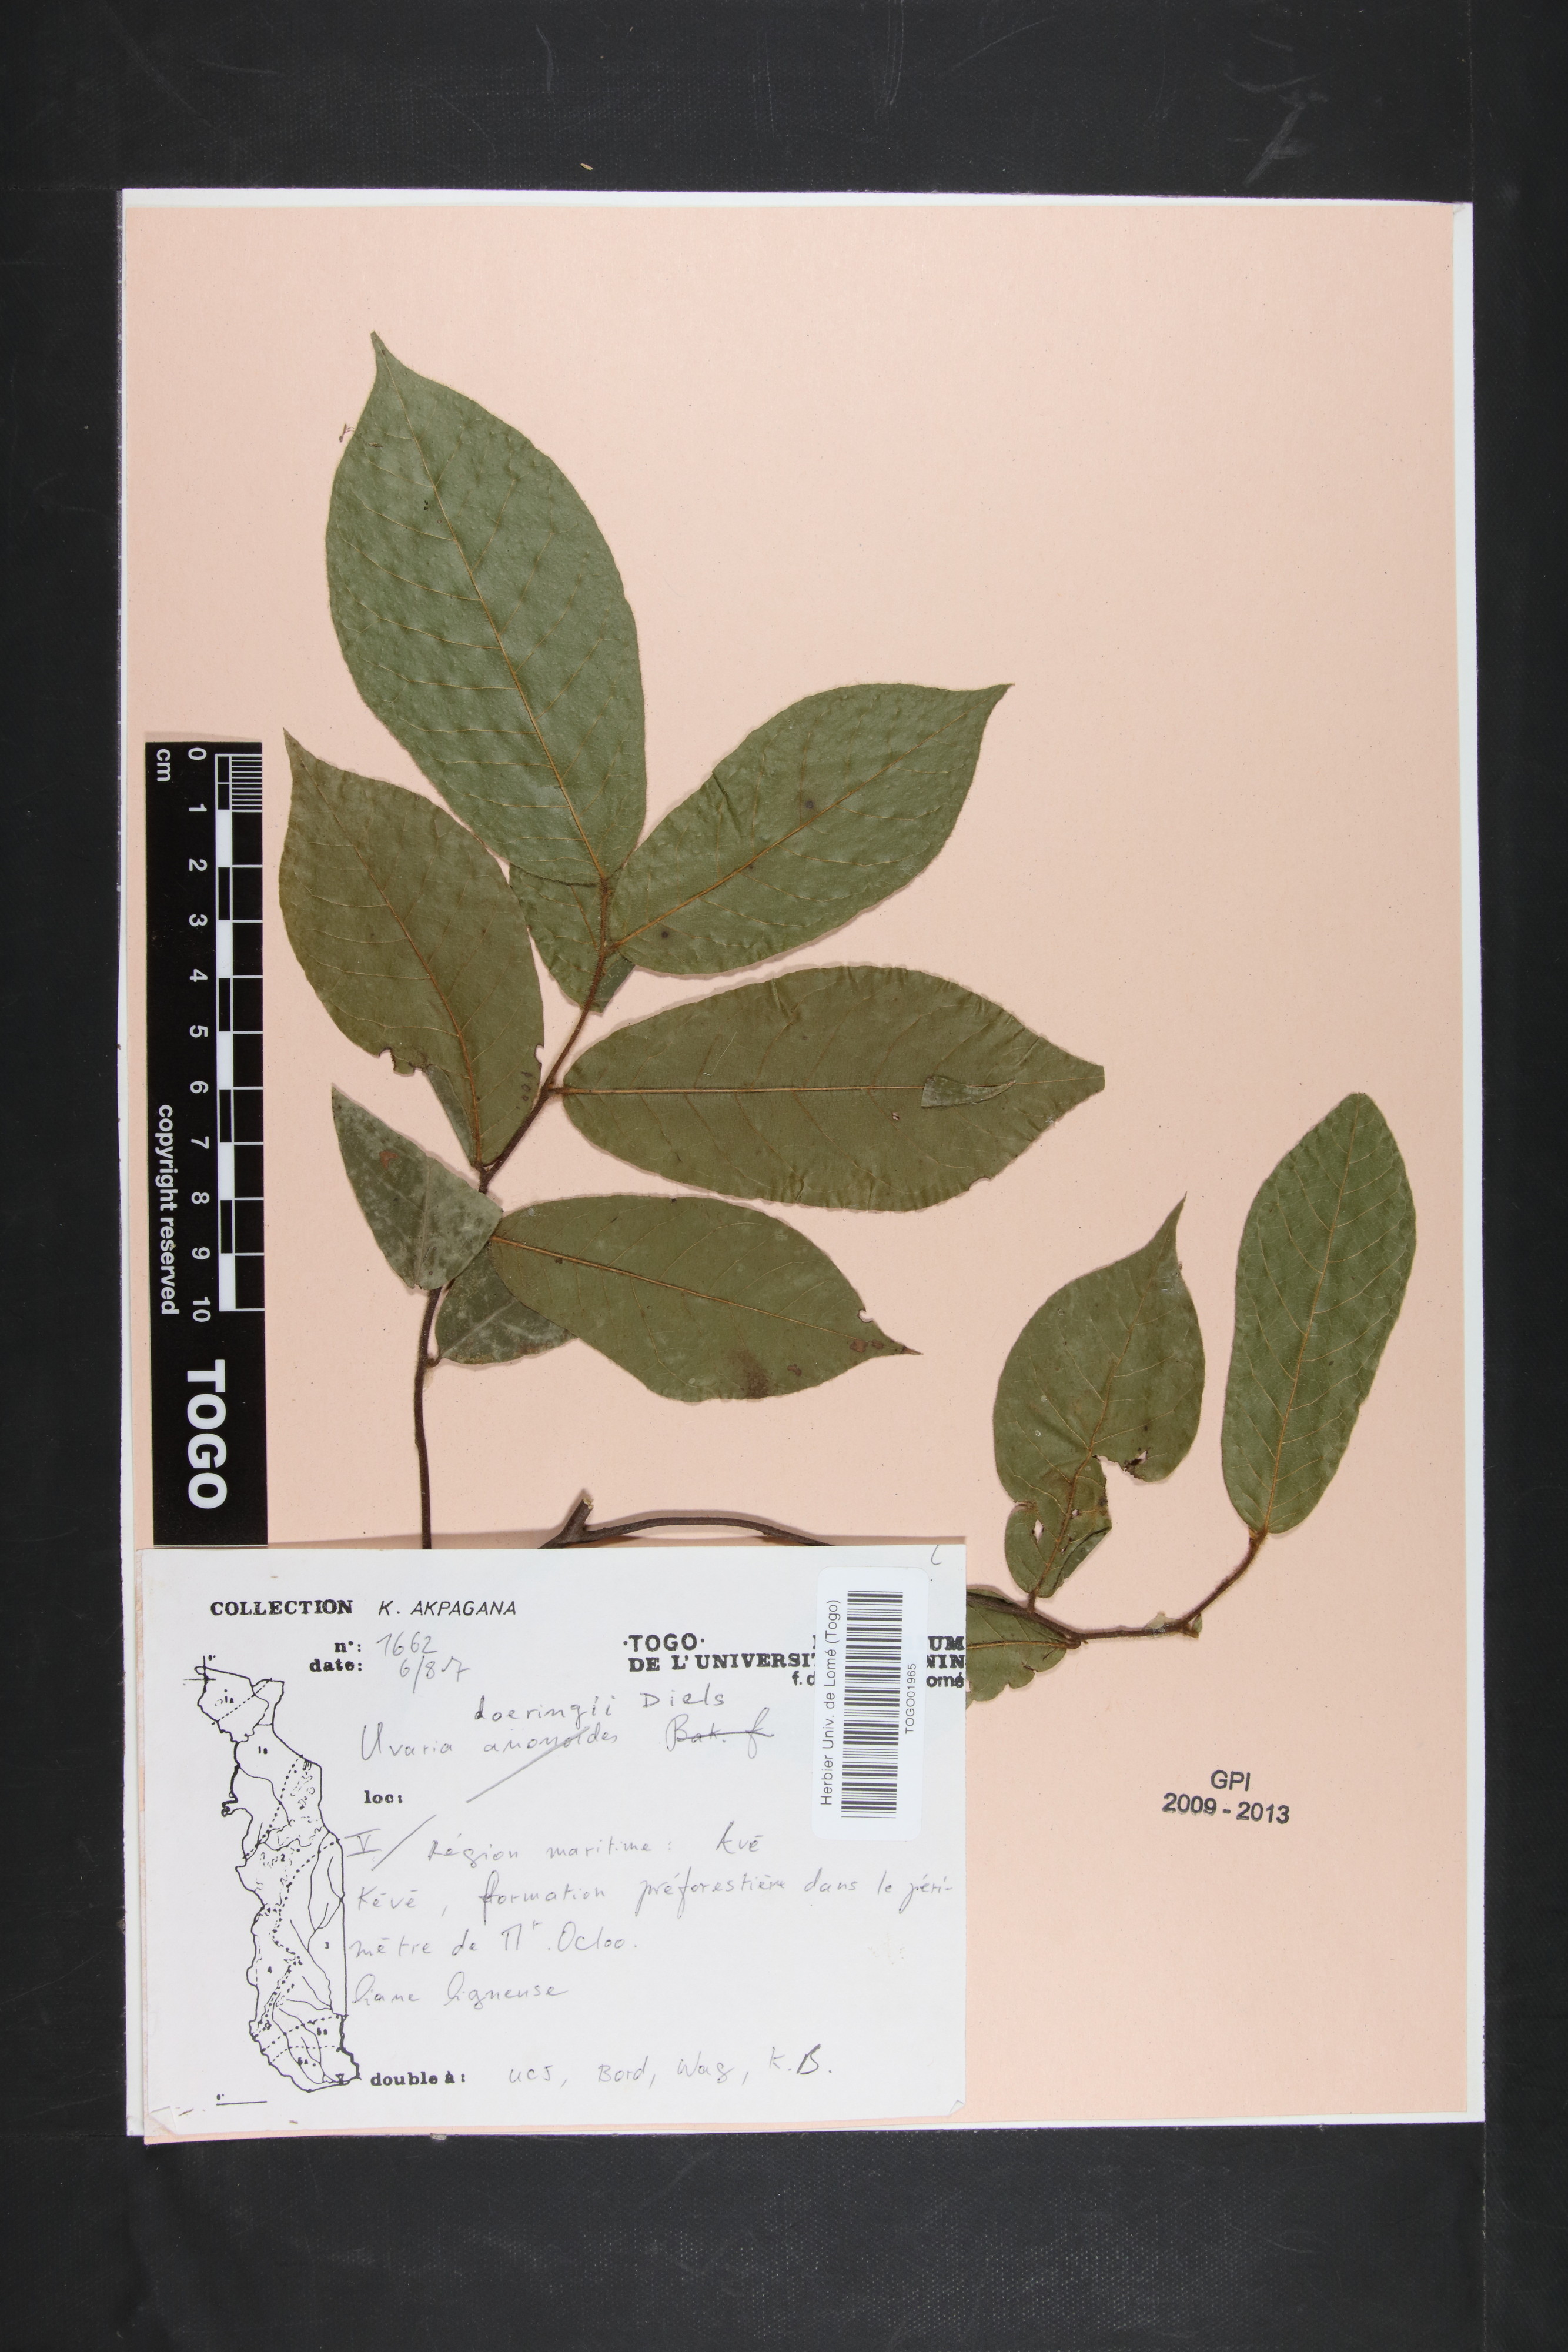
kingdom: Plantae
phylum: Tracheophyta
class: Magnoliopsida
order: Magnoliales
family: Annonaceae
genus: Uvaria
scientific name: Uvaria doeringii
